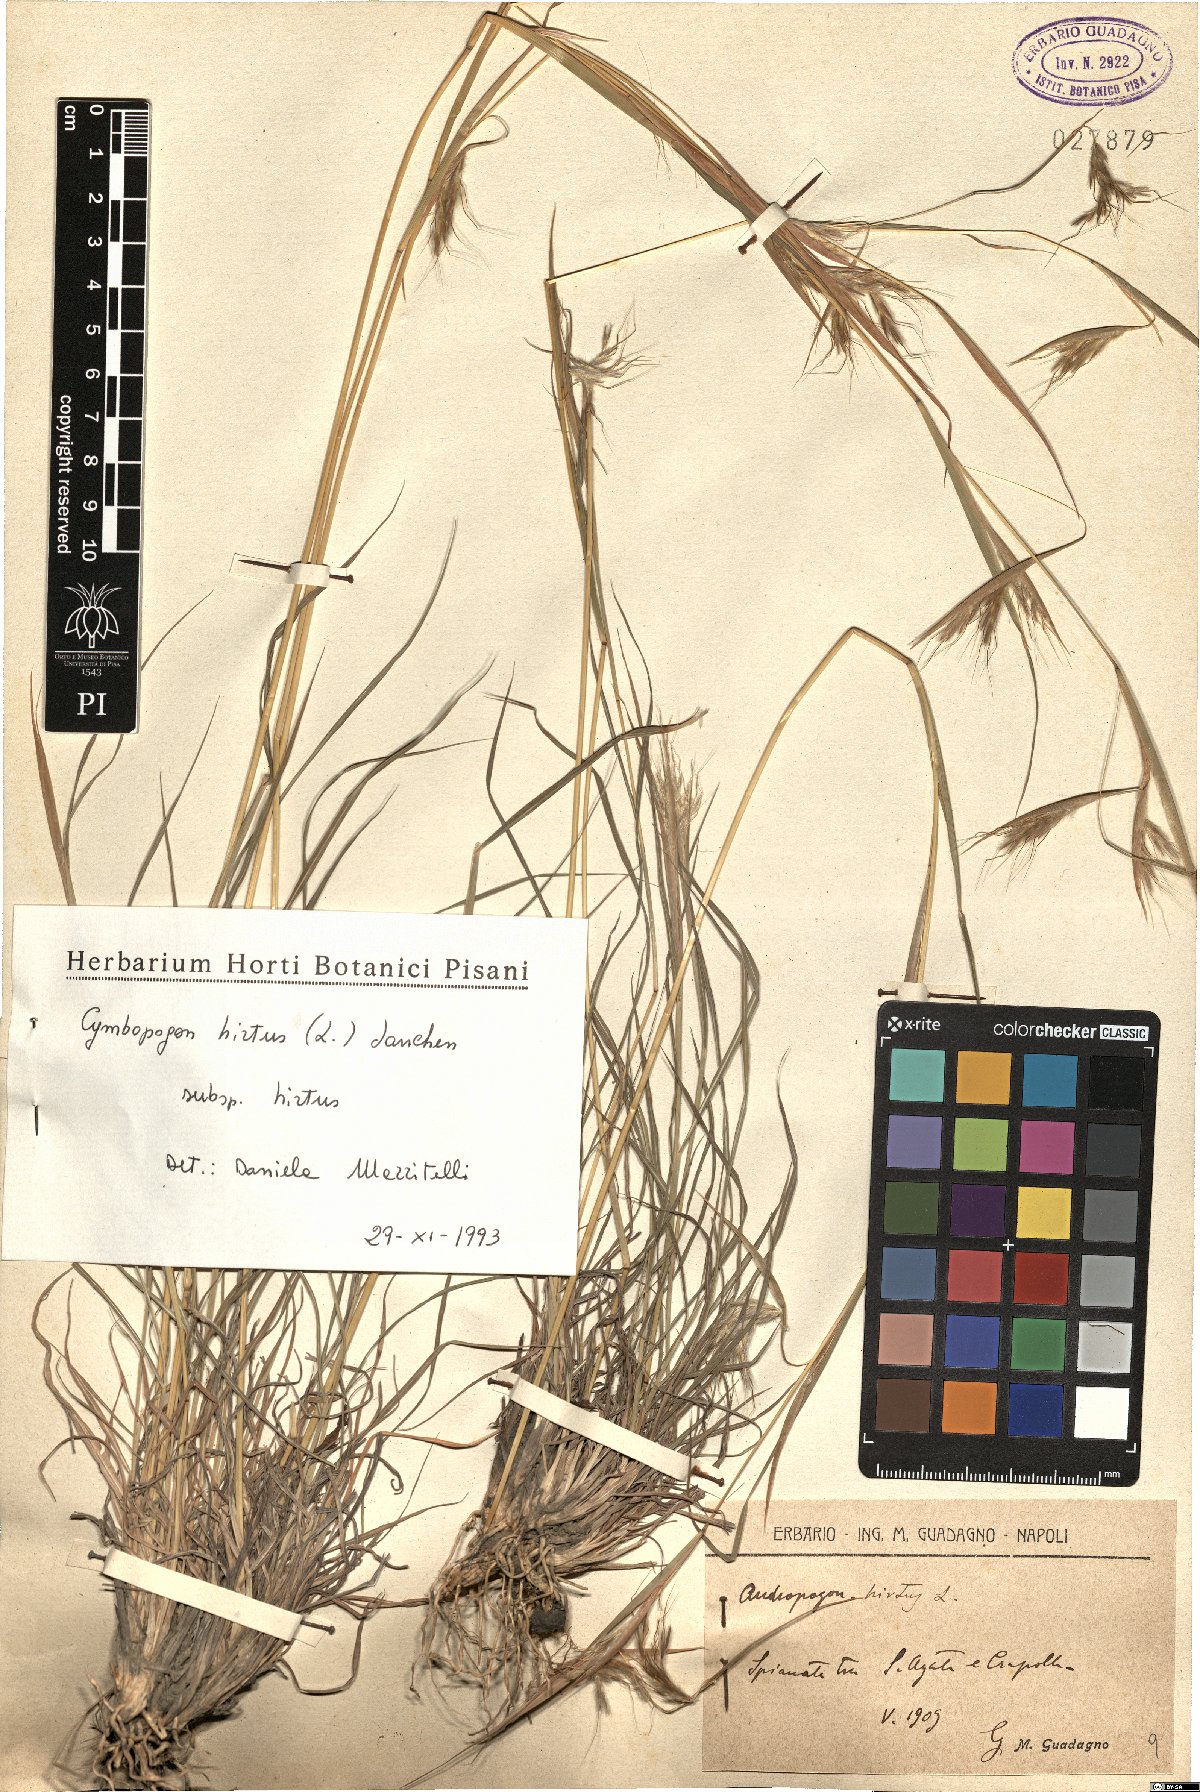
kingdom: Plantae
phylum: Tracheophyta
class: Liliopsida
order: Poales
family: Poaceae
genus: Cymbopogon
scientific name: Cymbopogon hirtus
